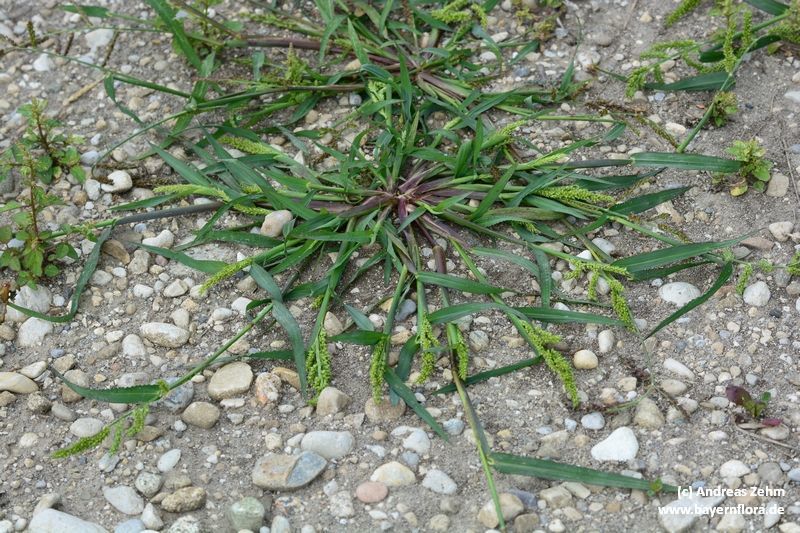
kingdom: Plantae
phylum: Tracheophyta
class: Liliopsida
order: Poales
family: Poaceae
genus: Echinochloa
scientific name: Echinochloa crus-galli
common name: Cockspur
